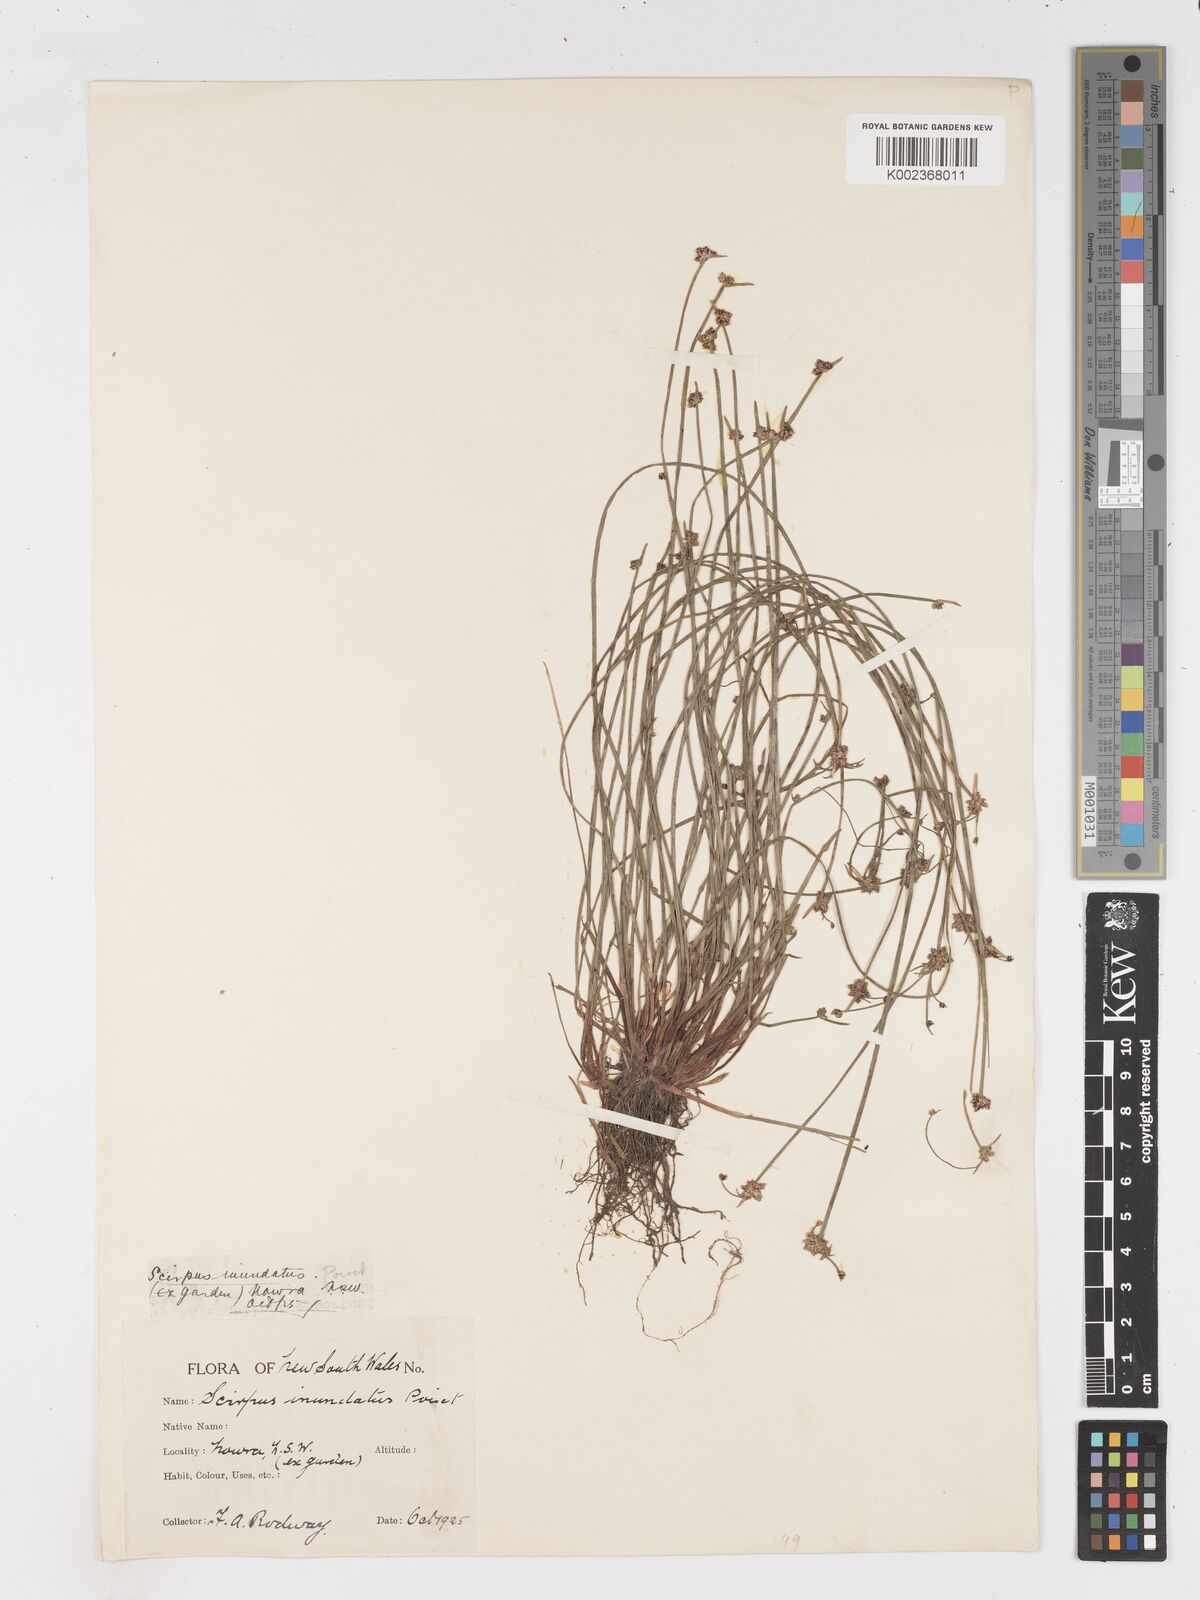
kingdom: Plantae
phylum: Tracheophyta
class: Liliopsida
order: Poales
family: Cyperaceae
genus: Isolepis
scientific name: Isolepis inundata
